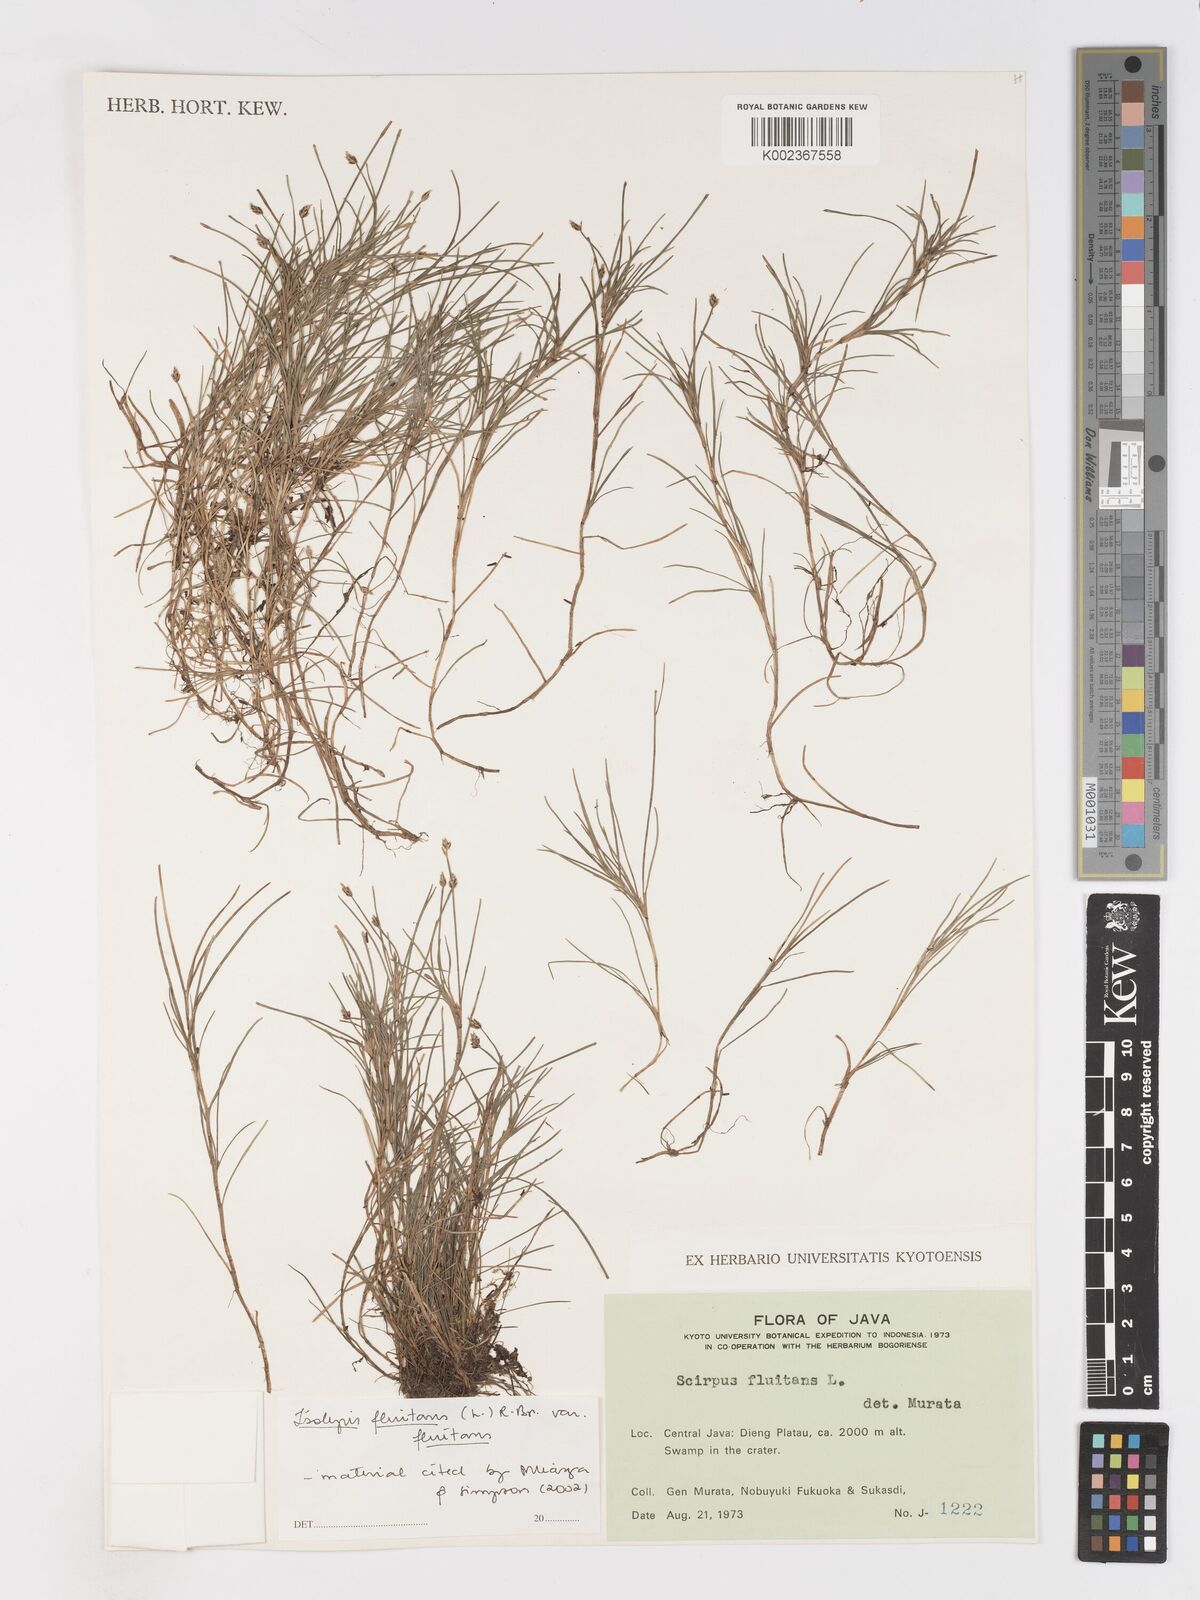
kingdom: Plantae
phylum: Tracheophyta
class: Liliopsida
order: Poales
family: Cyperaceae
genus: Isolepis
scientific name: Isolepis fluitans
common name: Floating club-rush
